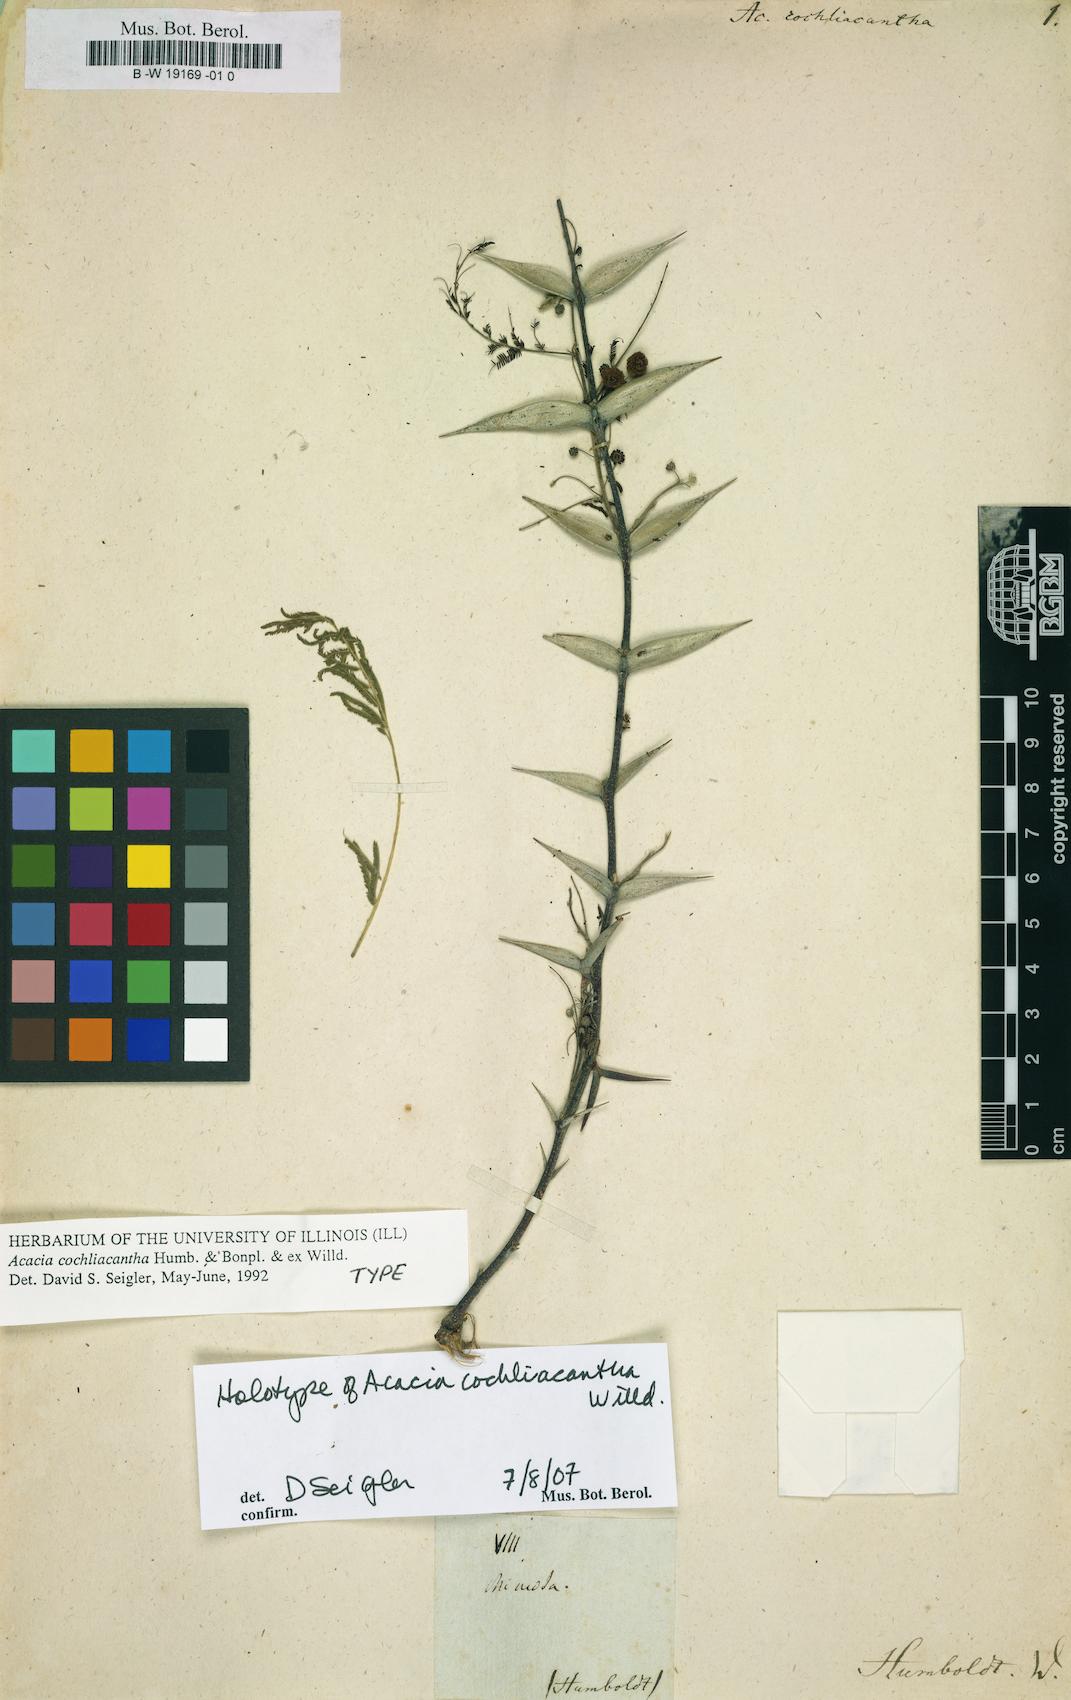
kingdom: Plantae
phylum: Tracheophyta
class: Magnoliopsida
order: Fabales
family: Fabaceae
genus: Vachellia
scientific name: Vachellia campeachiana
